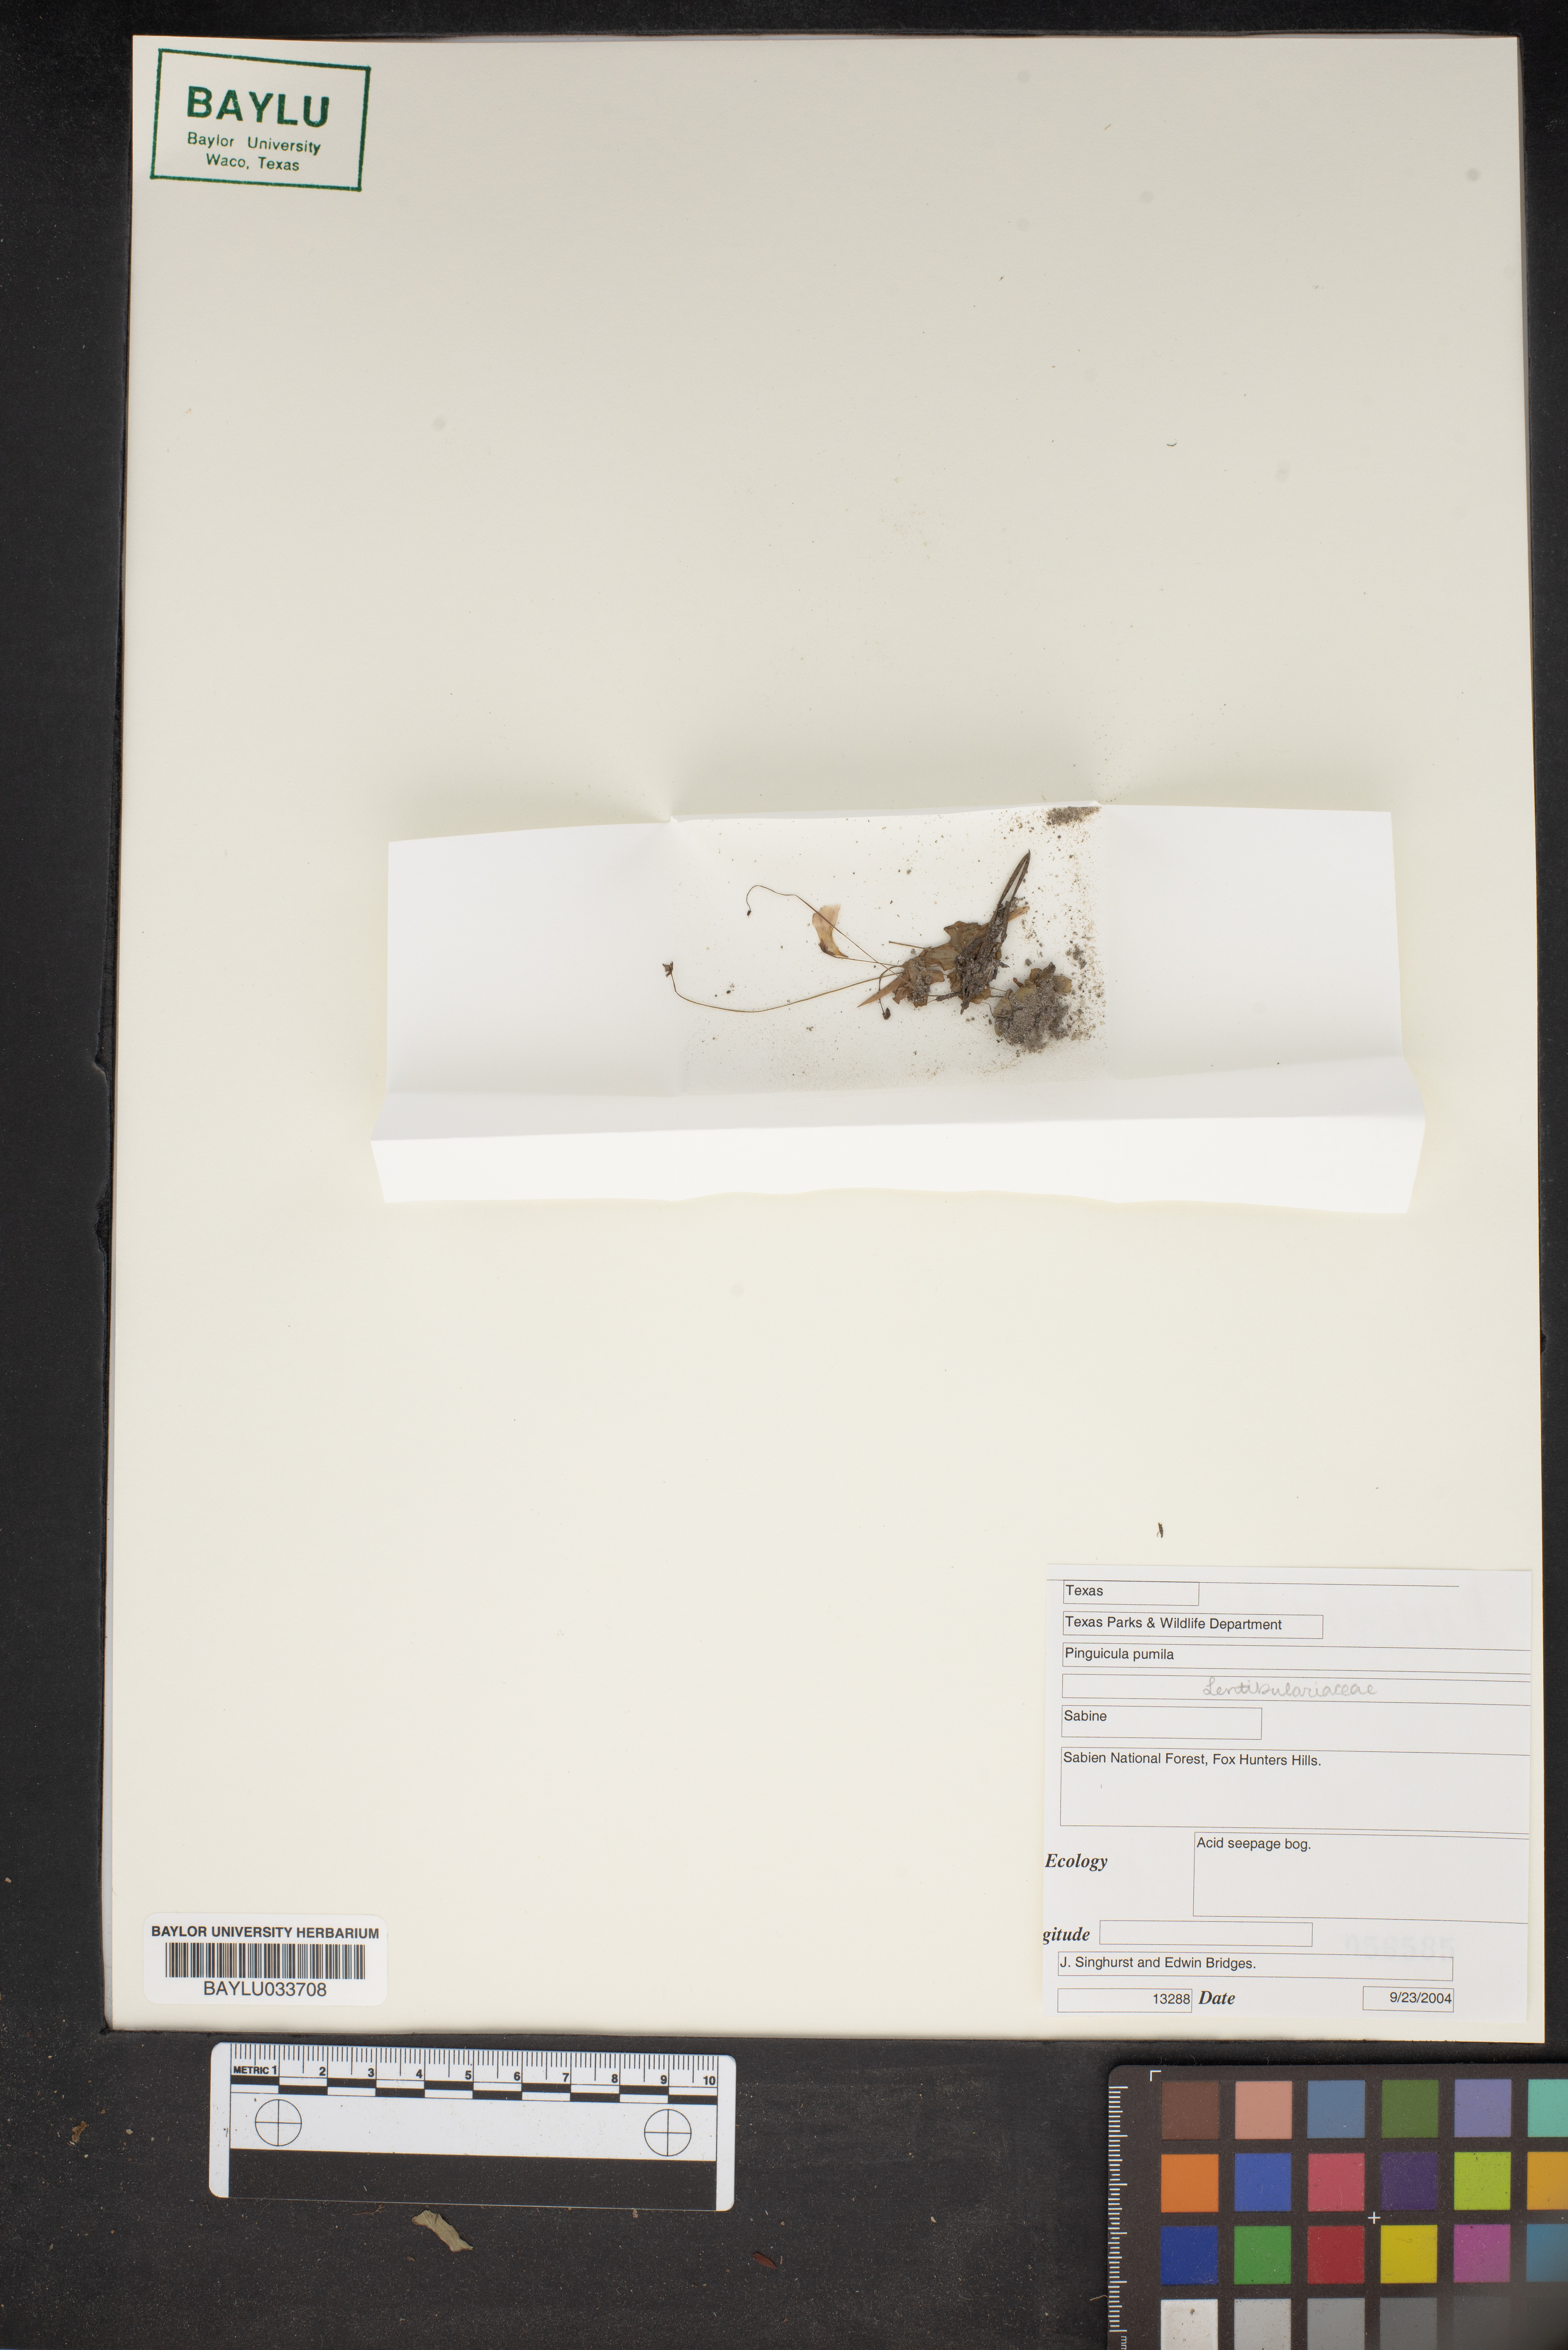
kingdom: Plantae
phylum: Tracheophyta
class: Magnoliopsida
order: Lamiales
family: Lentibulariaceae
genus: Pinguicula
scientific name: Pinguicula pumila
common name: Small butterwort
